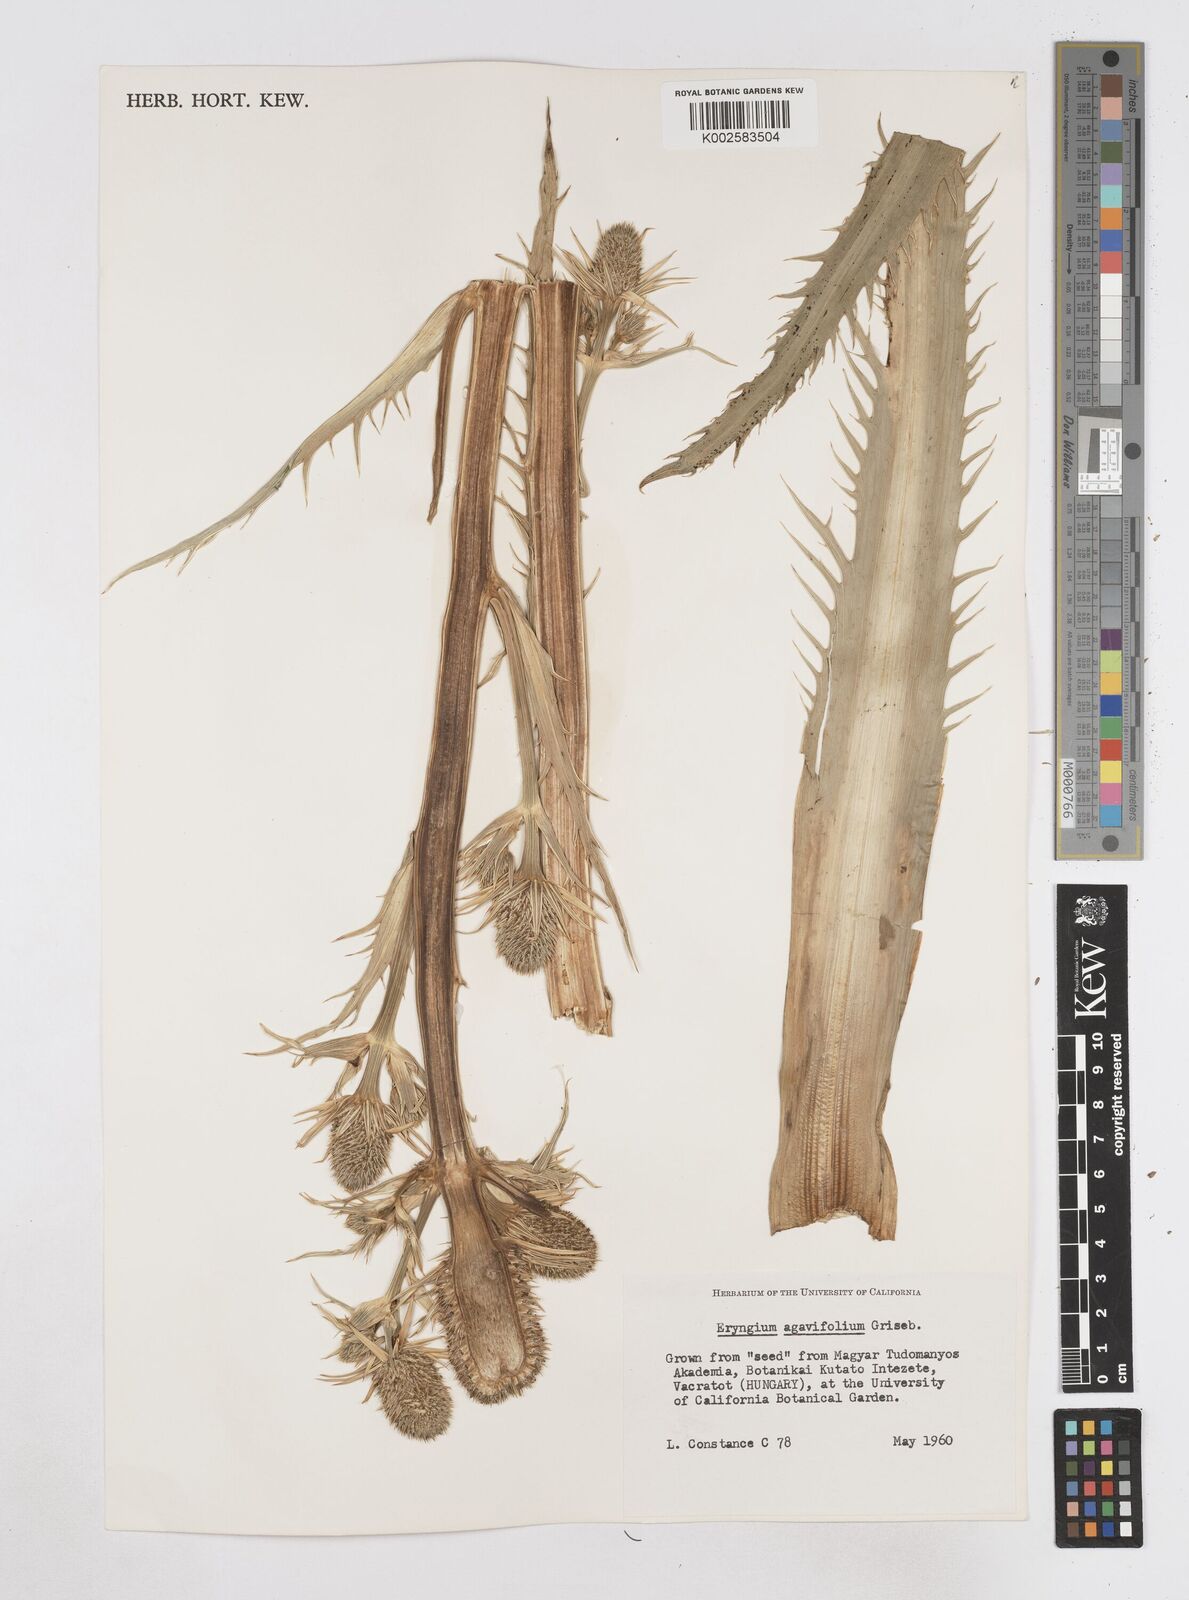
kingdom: Plantae
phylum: Tracheophyta
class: Magnoliopsida
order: Apiales
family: Apiaceae
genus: Eryngium
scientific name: Eryngium agavifolium
